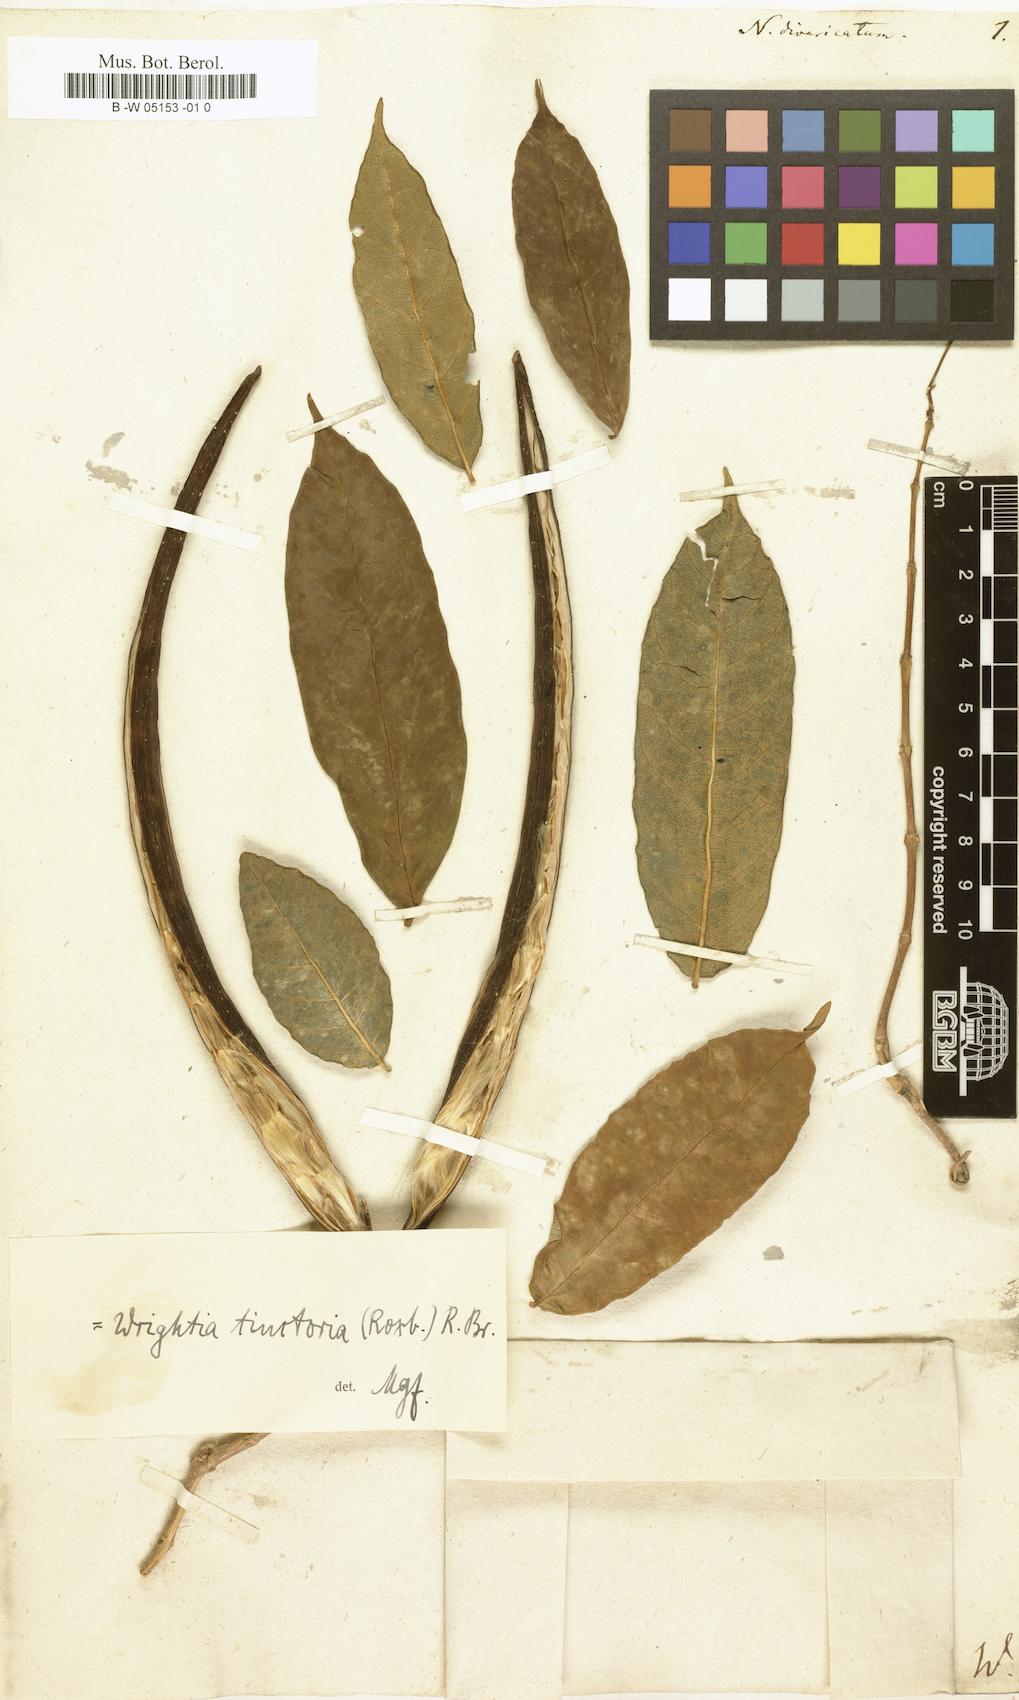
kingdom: Plantae
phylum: Tracheophyta
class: Magnoliopsida
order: Gentianales
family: Apocynaceae
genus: Nerium
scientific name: Nerium divaricatum
